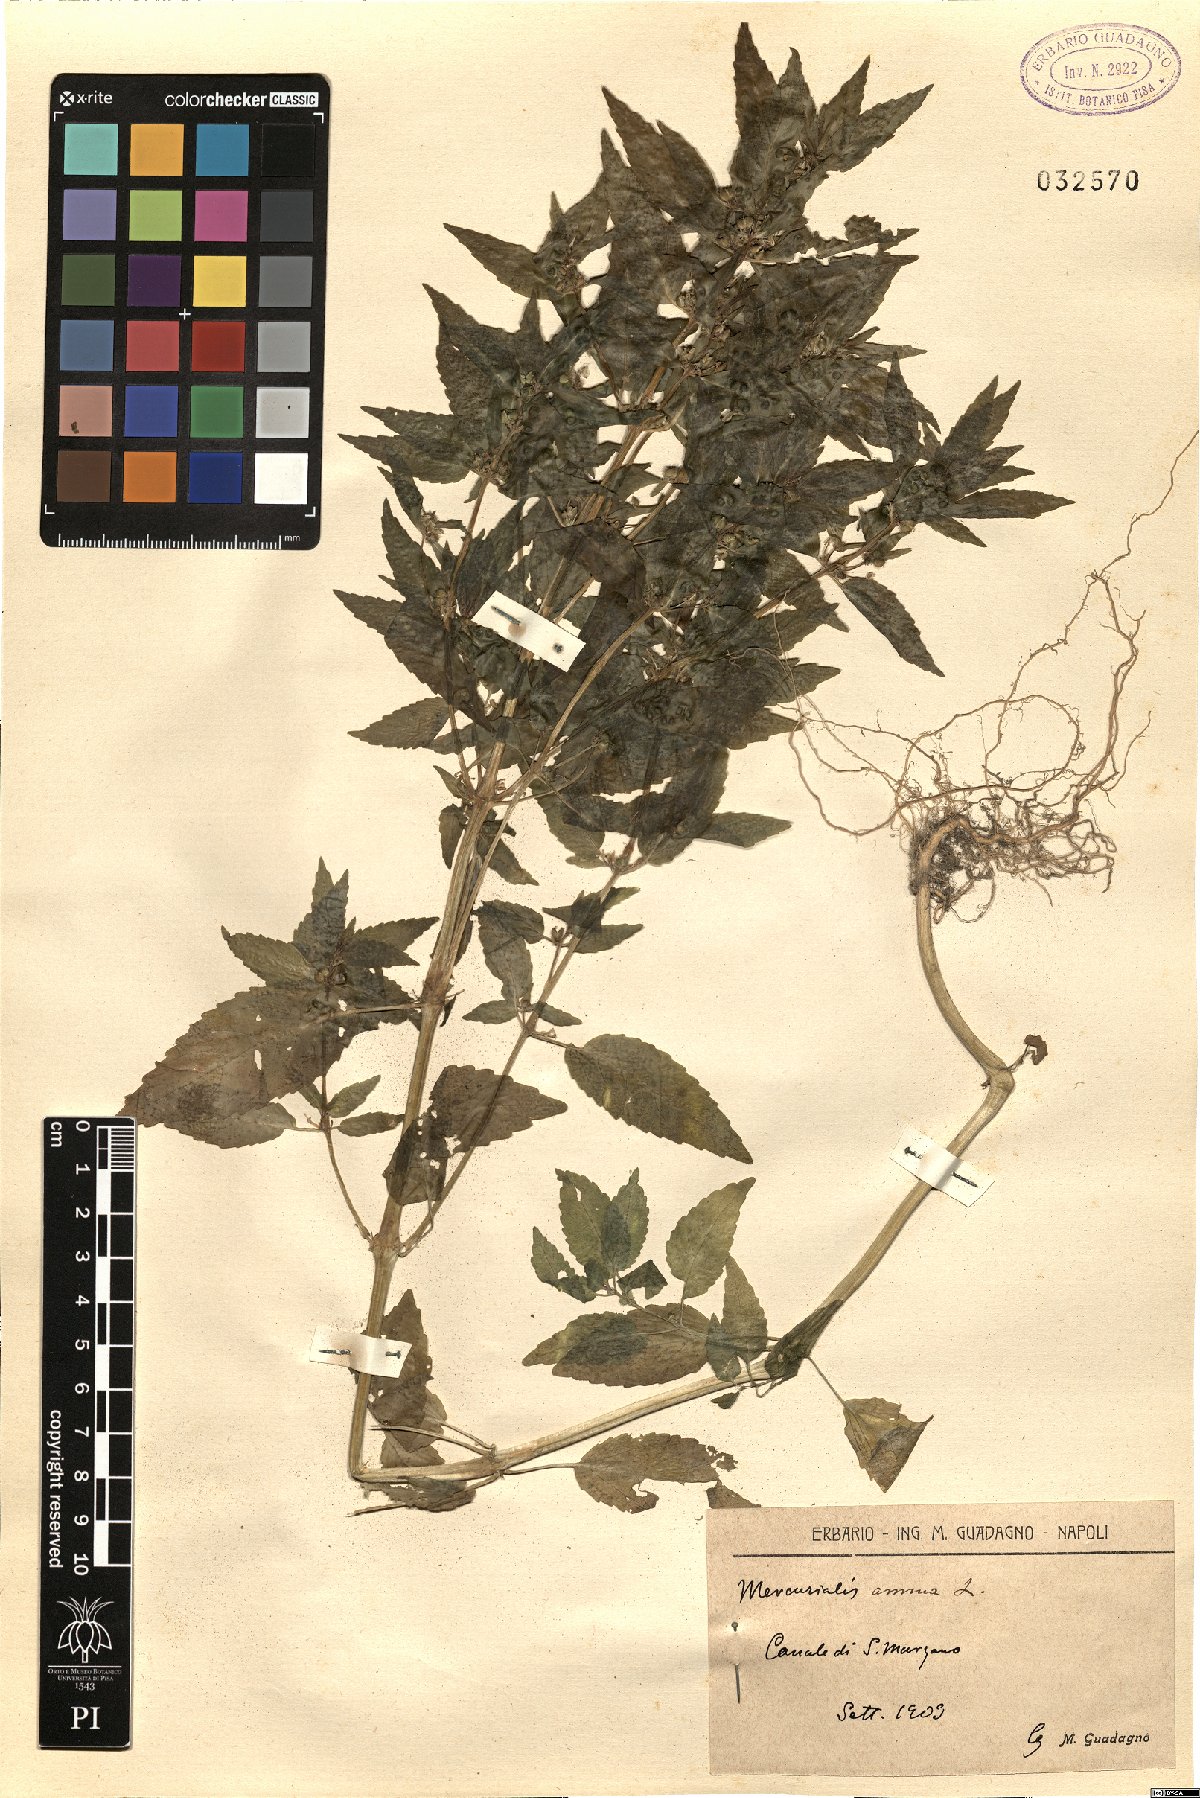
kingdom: Plantae
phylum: Tracheophyta
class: Magnoliopsida
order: Malpighiales
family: Euphorbiaceae
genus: Mercurialis
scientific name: Mercurialis annua
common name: Annual mercury
